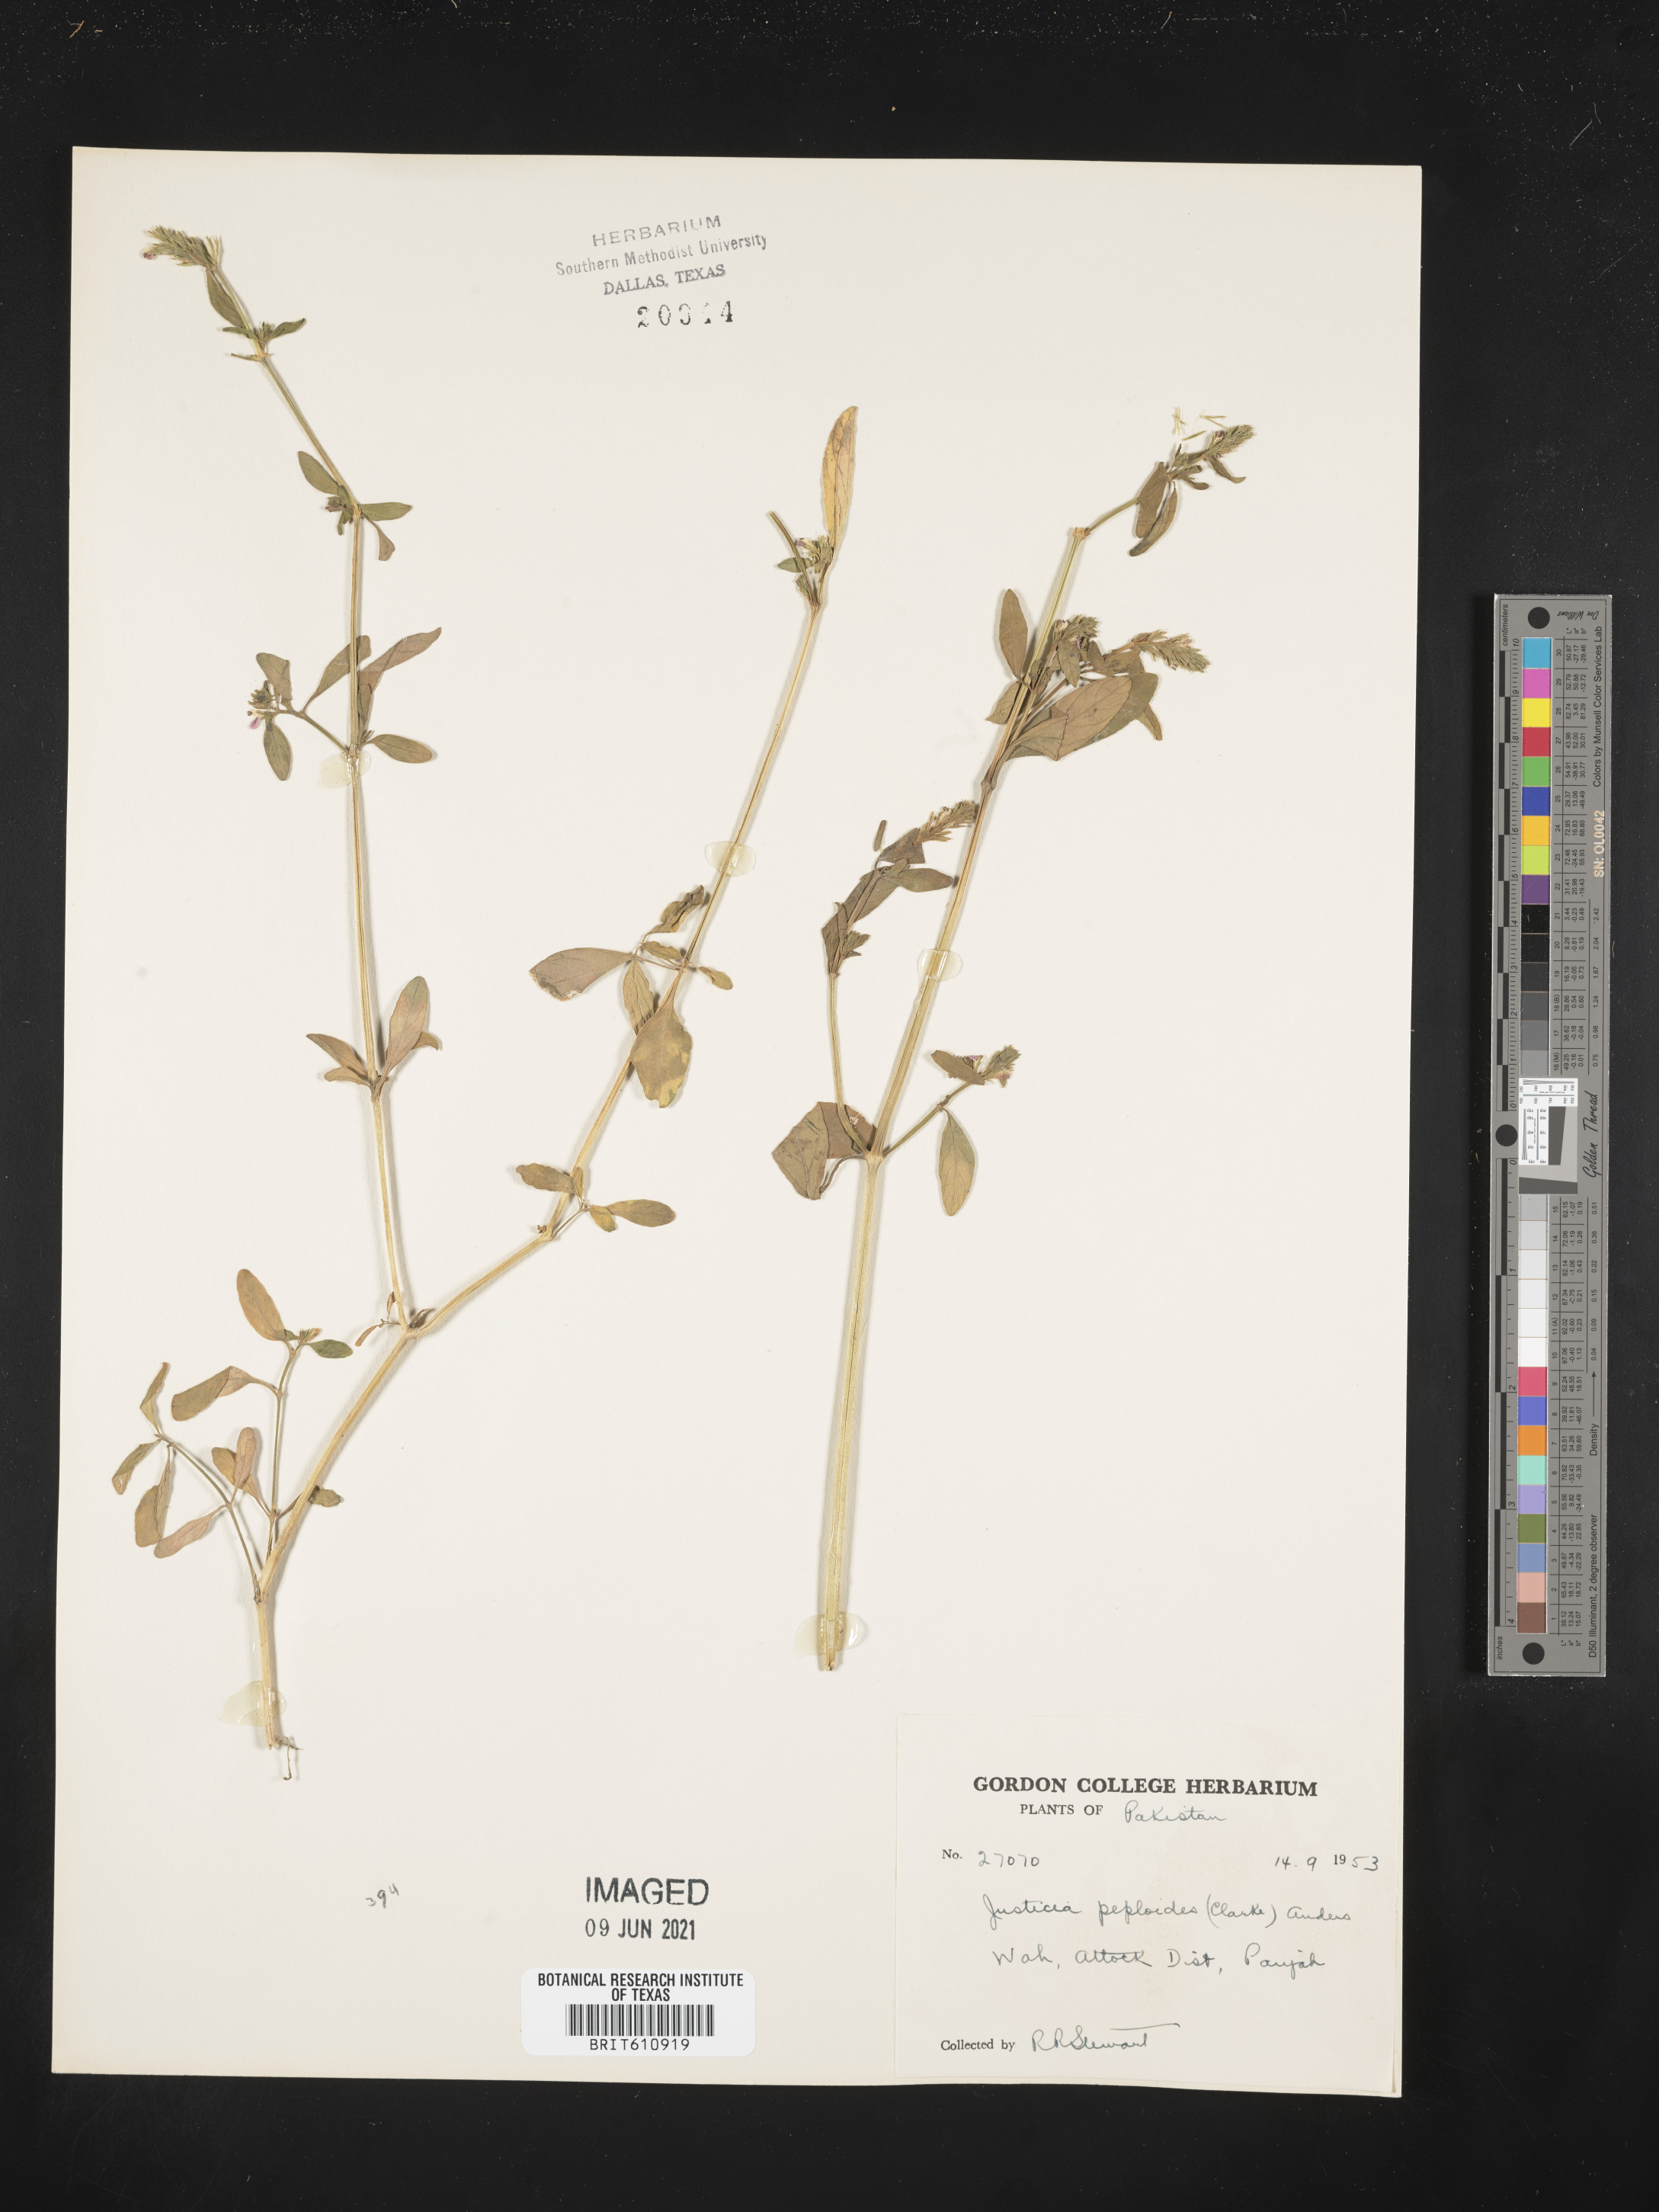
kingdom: Plantae
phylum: Tracheophyta
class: Magnoliopsida
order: Lamiales
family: Acanthaceae
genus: Dianthera
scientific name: Dianthera peploides
